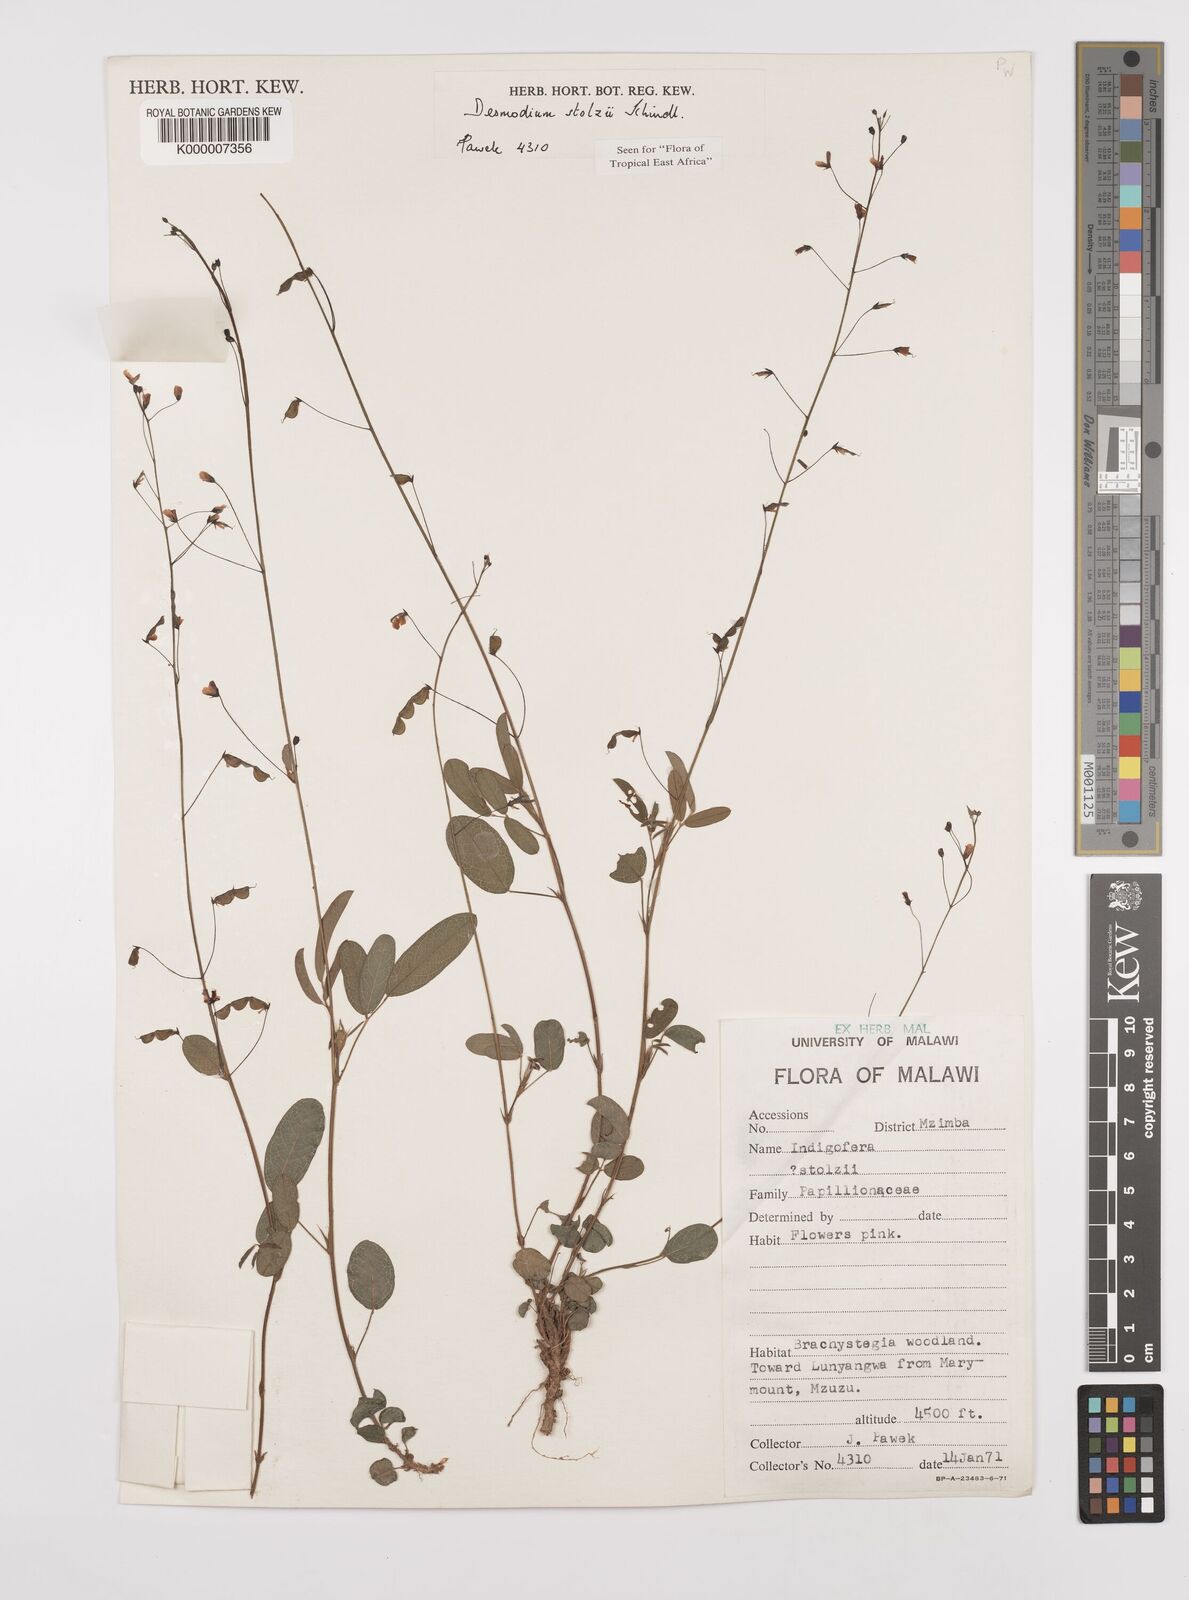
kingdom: Plantae
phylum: Tracheophyta
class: Magnoliopsida
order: Fabales
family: Fabaceae
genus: Grona
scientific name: Grona stolzii
